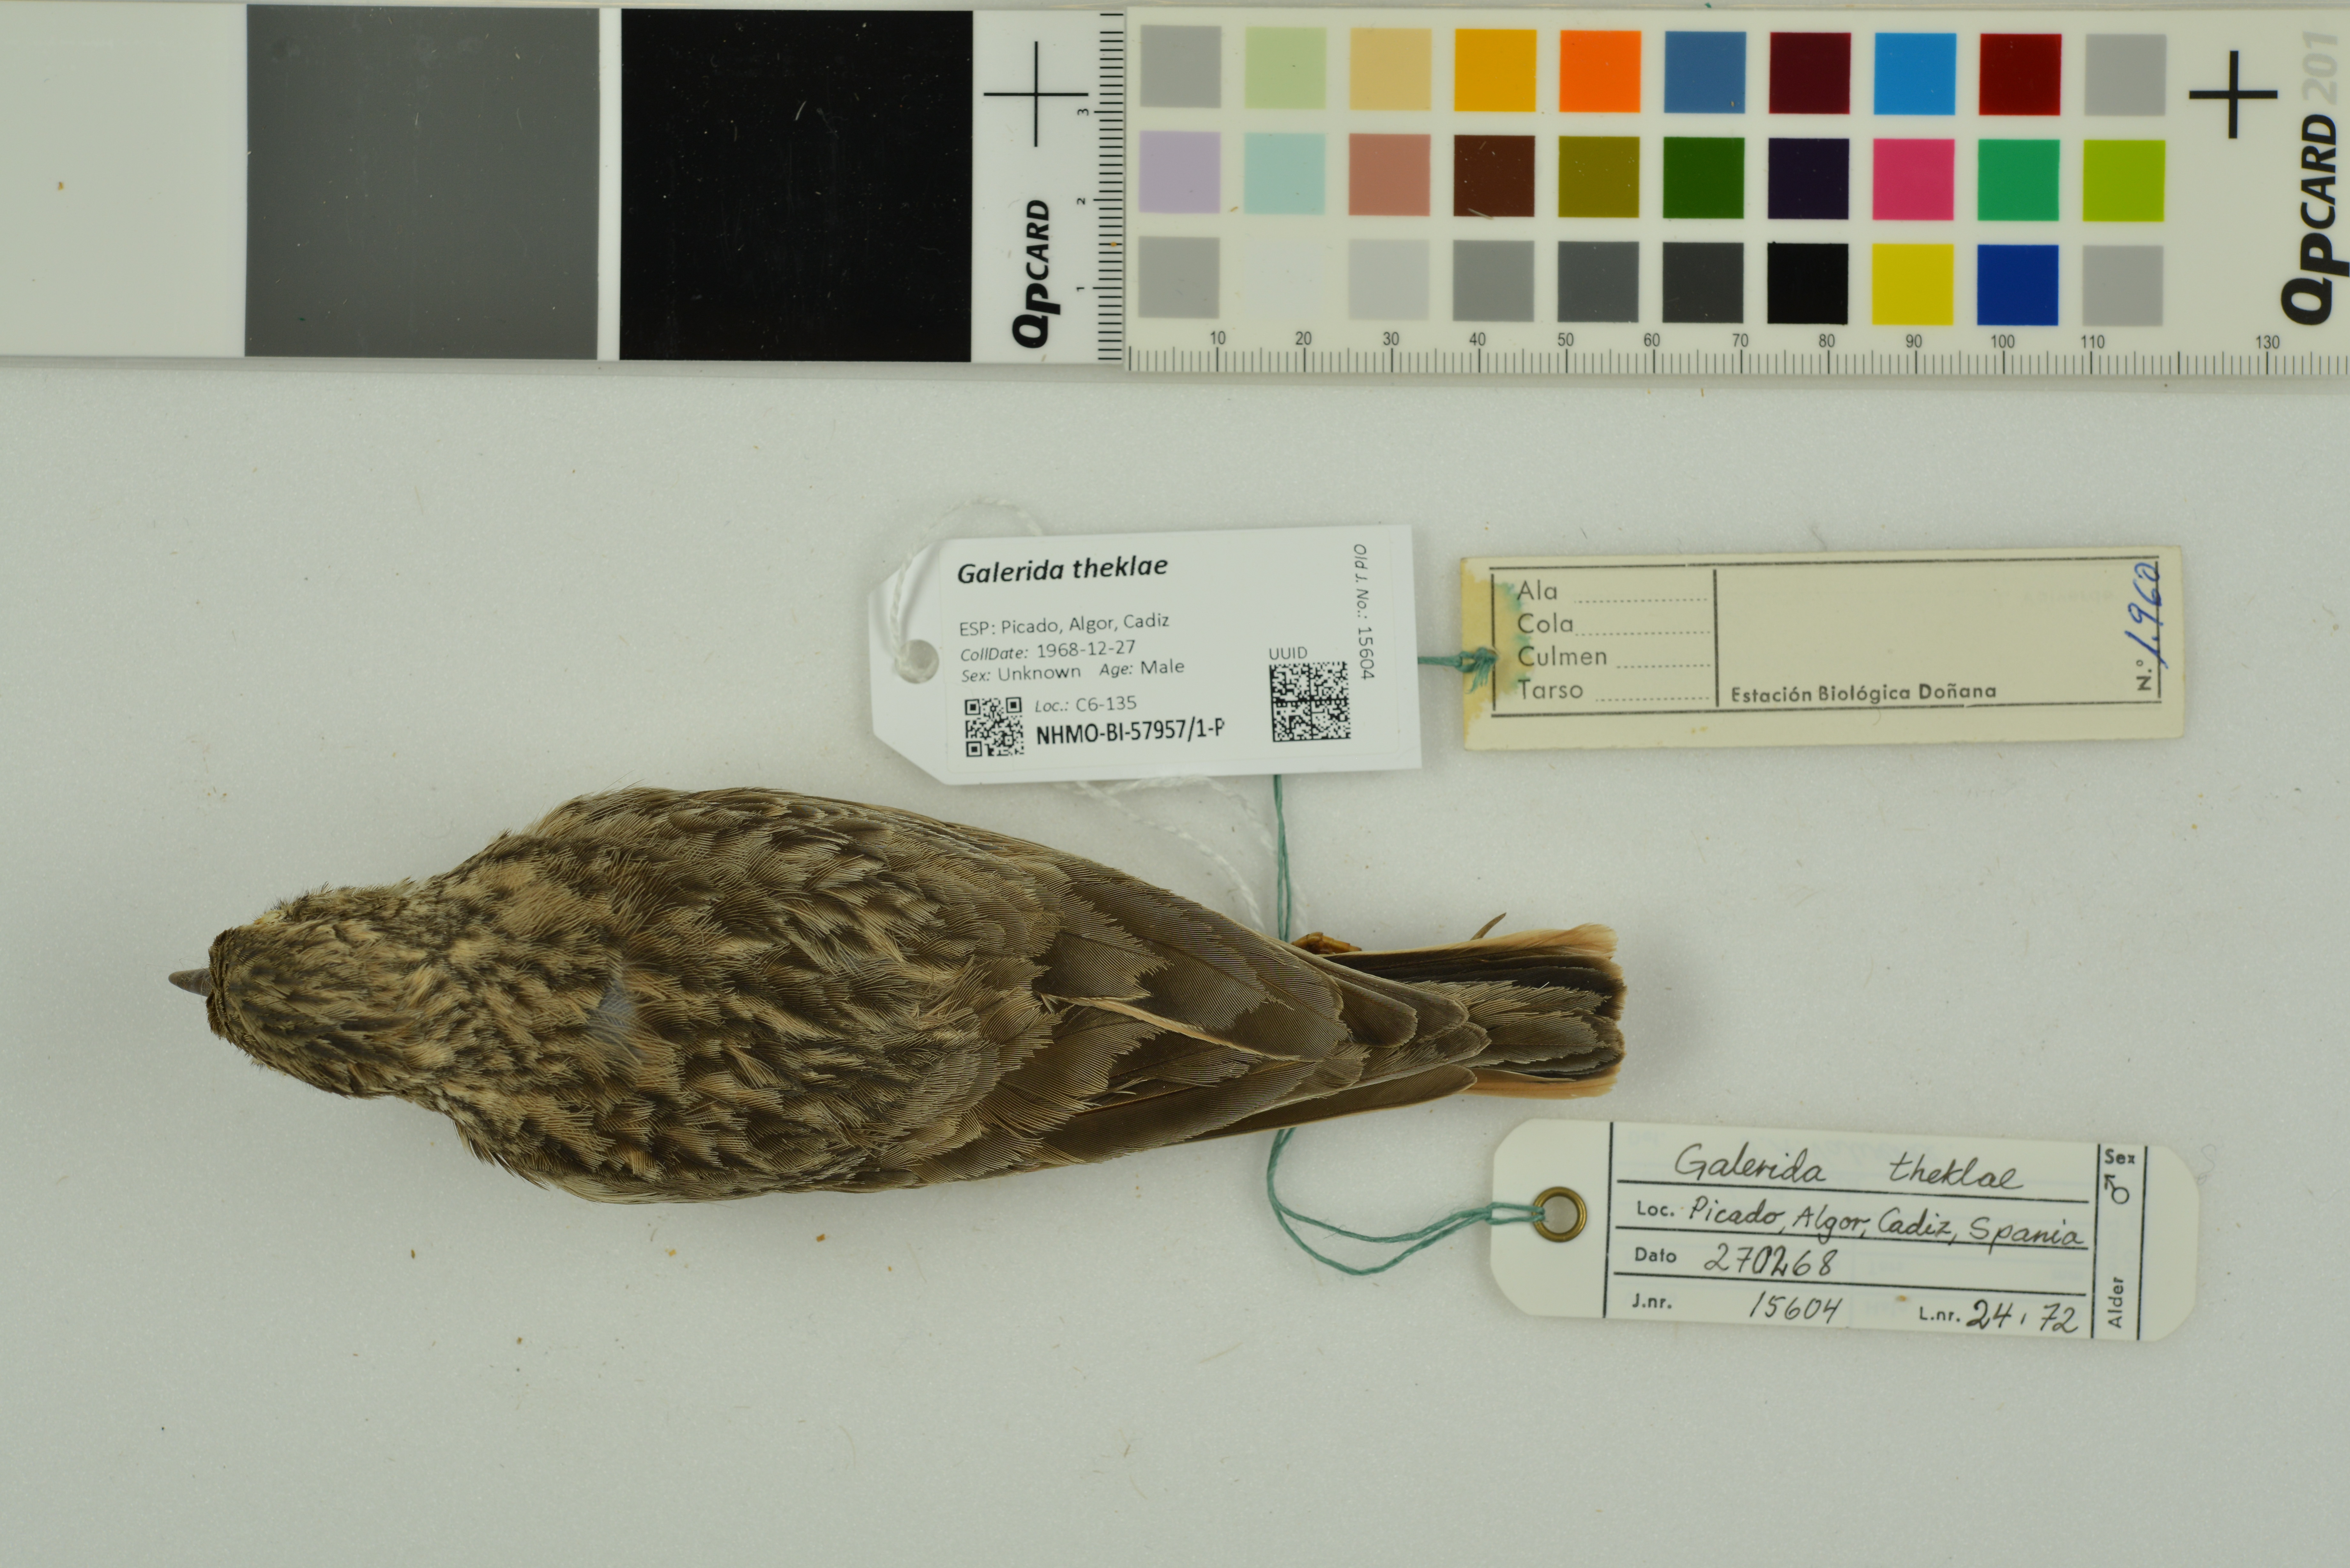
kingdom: Animalia
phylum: Chordata
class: Aves
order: Passeriformes
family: Alaudidae
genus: Galerida
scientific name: Galerida theklae
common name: Thekla lark
